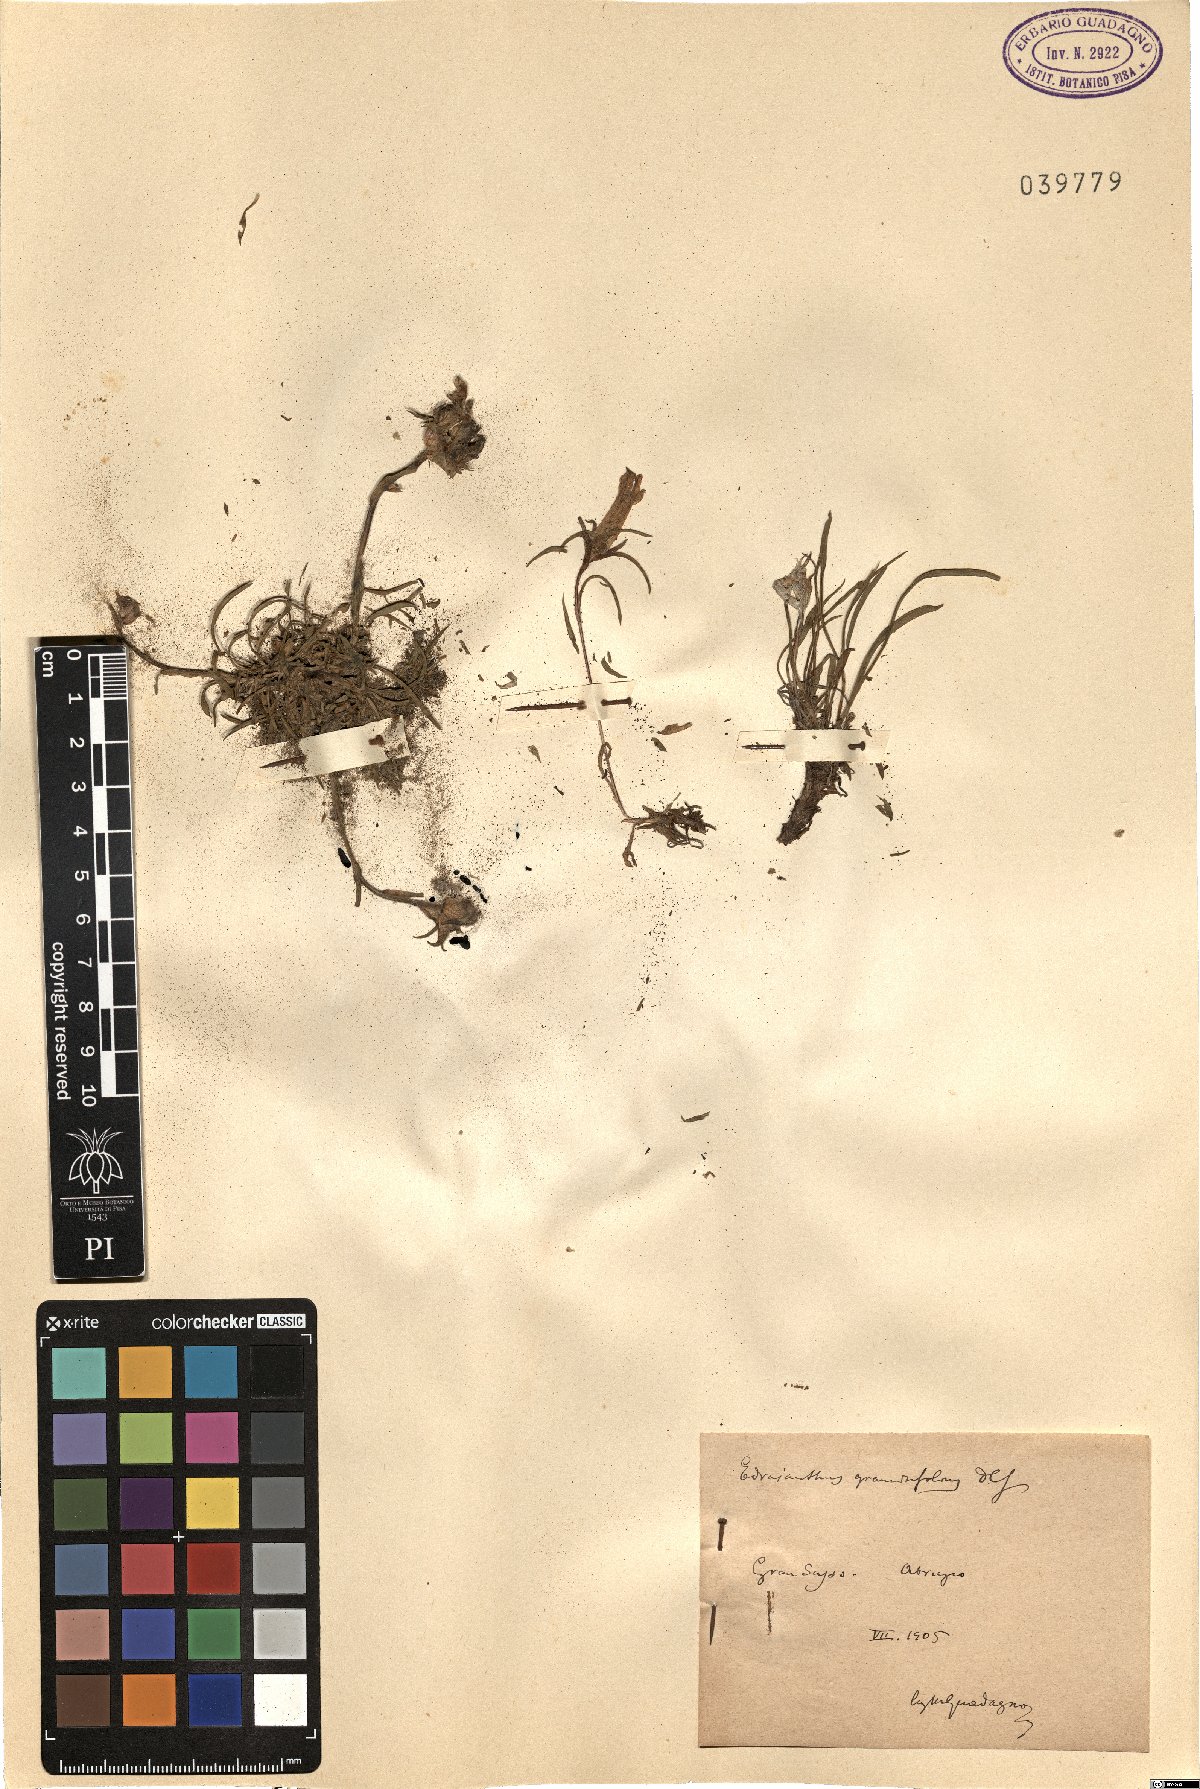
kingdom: Plantae
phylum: Tracheophyta
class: Magnoliopsida
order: Asterales
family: Campanulaceae
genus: Edraianthus
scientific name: Edraianthus graminifolius
